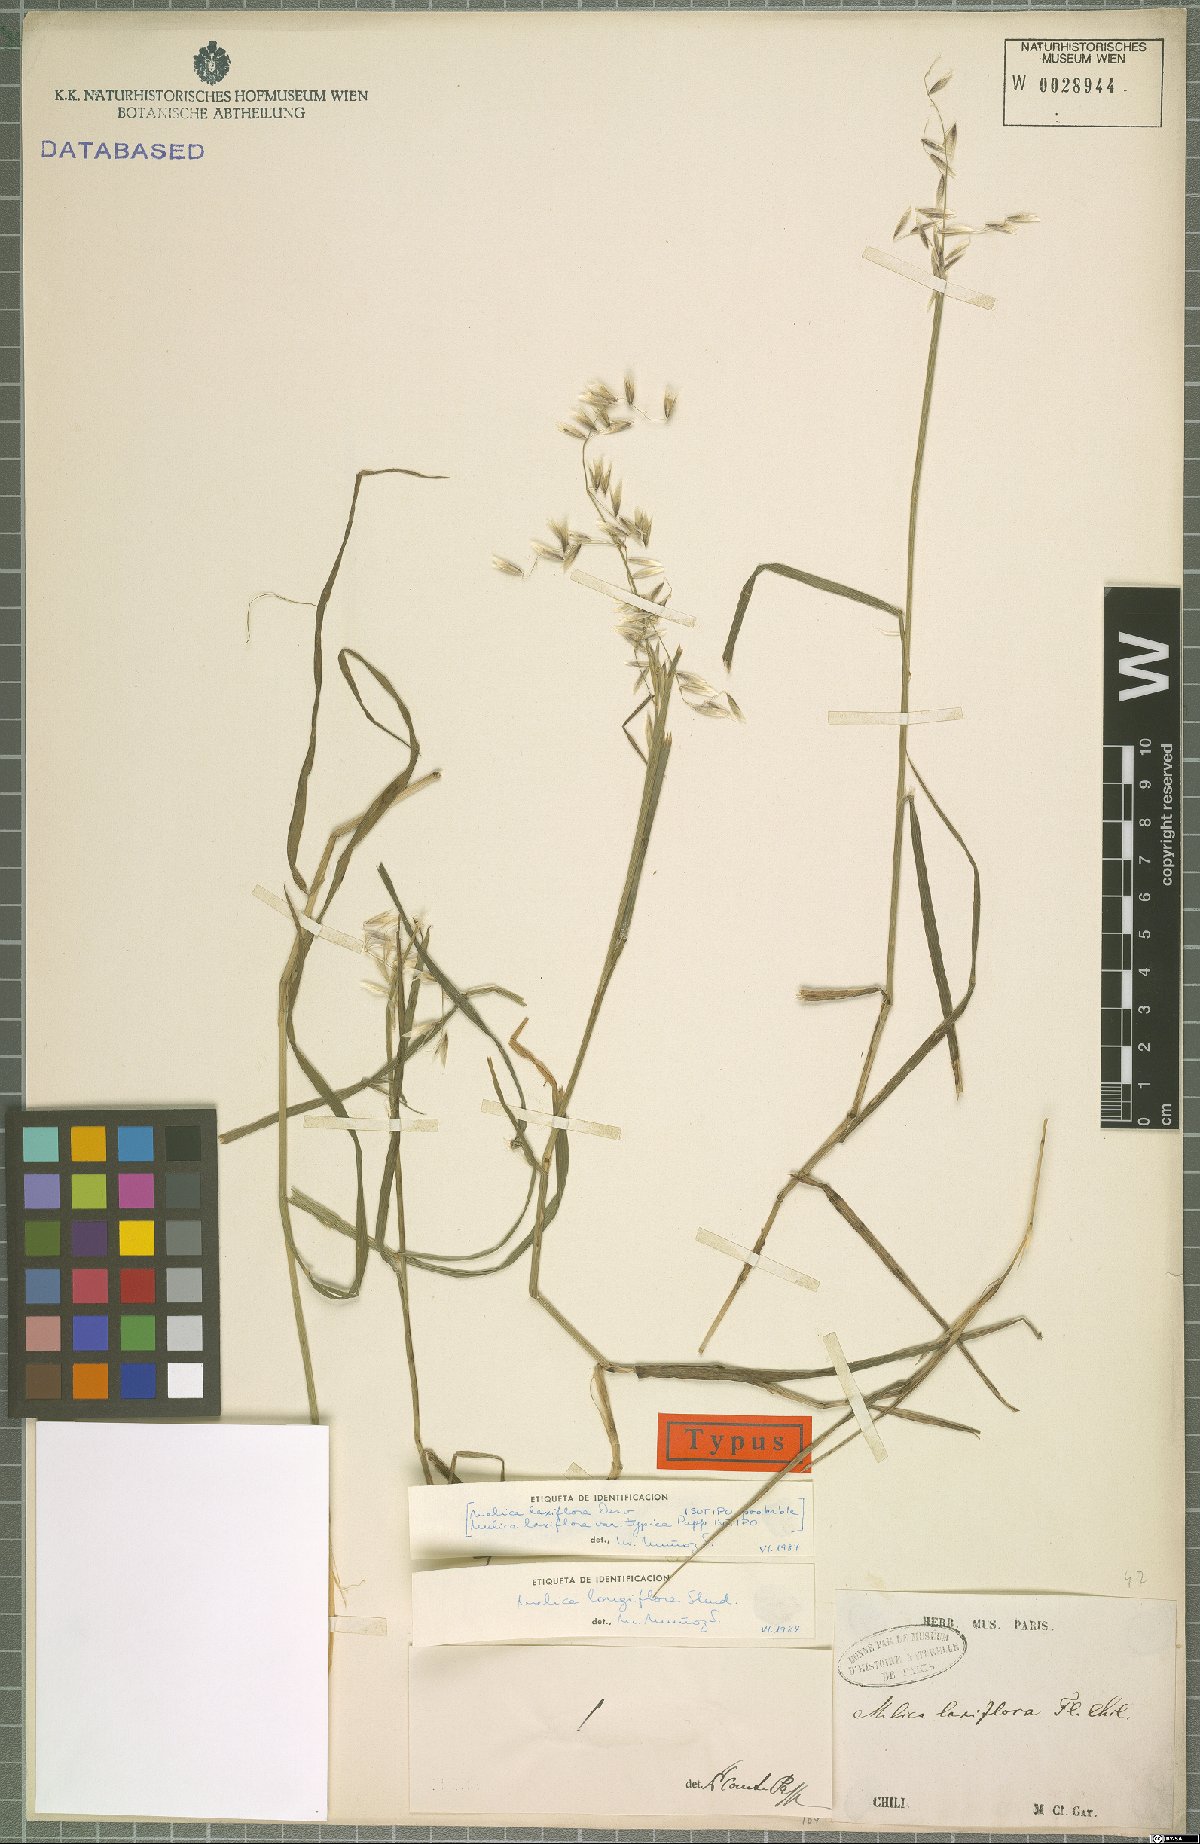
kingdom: Plantae
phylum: Tracheophyta
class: Liliopsida
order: Poales
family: Poaceae
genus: Melica
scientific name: Melica longiflora
